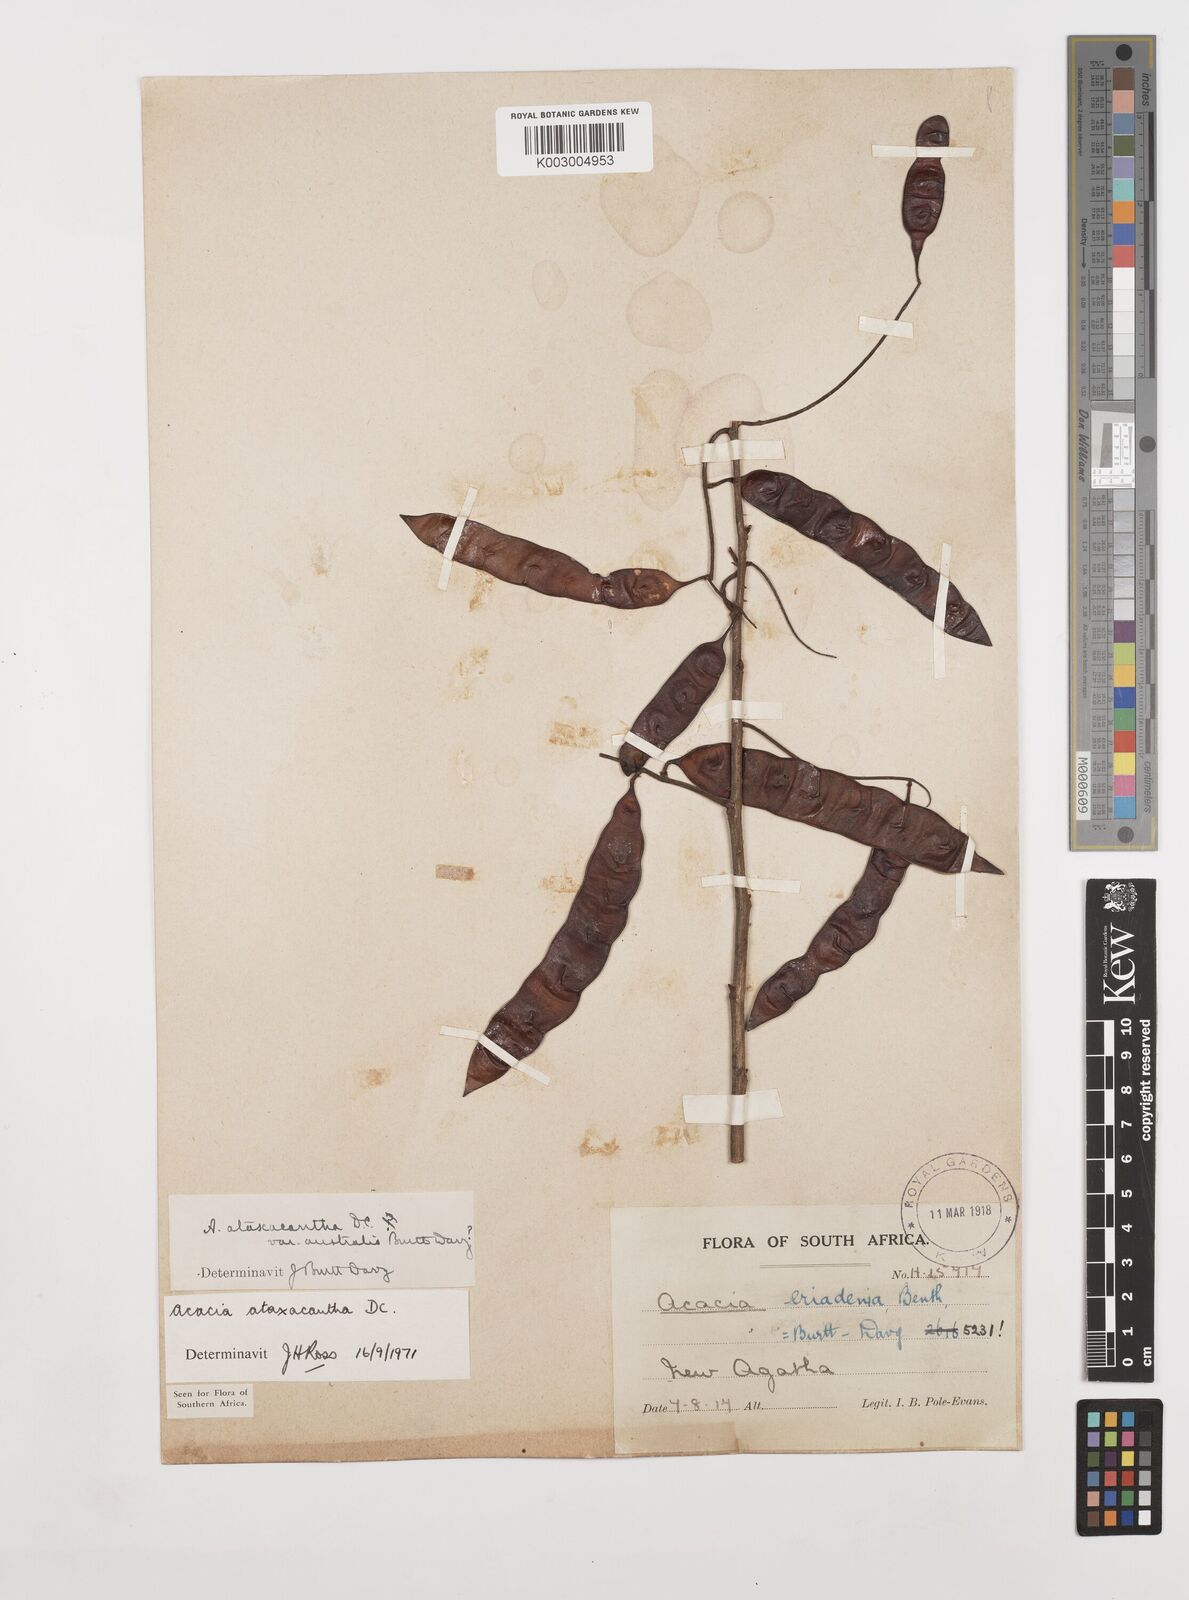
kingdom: Plantae
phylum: Tracheophyta
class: Magnoliopsida
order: Fabales
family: Fabaceae
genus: Senegalia
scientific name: Senegalia ataxacantha
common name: Flame acacia
